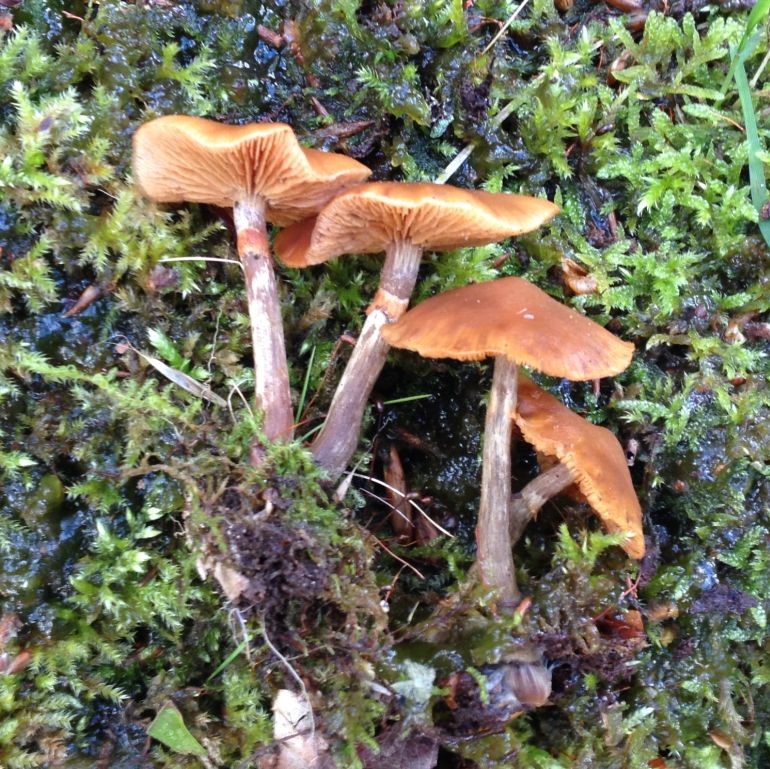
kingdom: Fungi
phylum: Basidiomycota
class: Agaricomycetes
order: Agaricales
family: Hymenogastraceae
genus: Galerina
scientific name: Galerina marginata
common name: randbæltet hjelmhat
